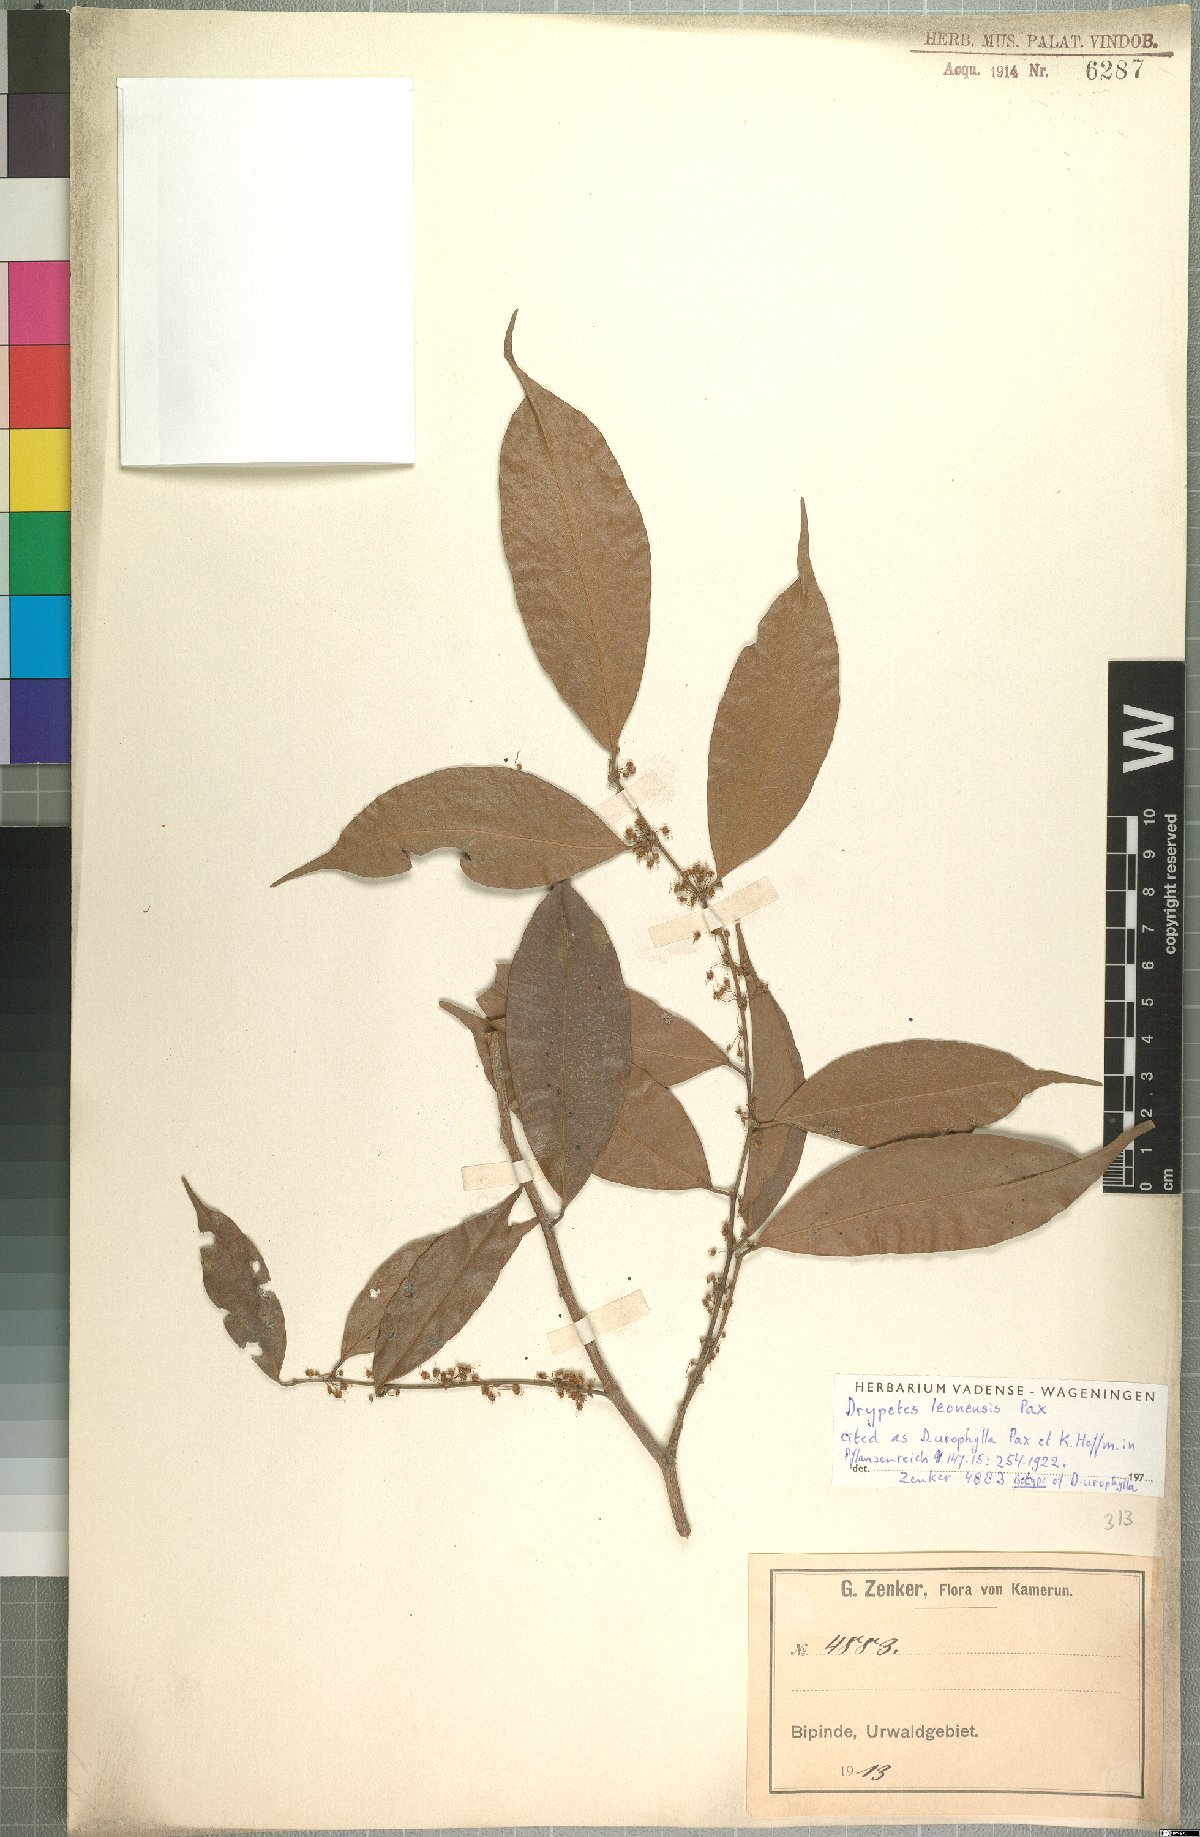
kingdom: Plantae
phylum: Tracheophyta
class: Magnoliopsida
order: Malpighiales
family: Putranjivaceae
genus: Drypetes
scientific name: Drypetes leonensis
